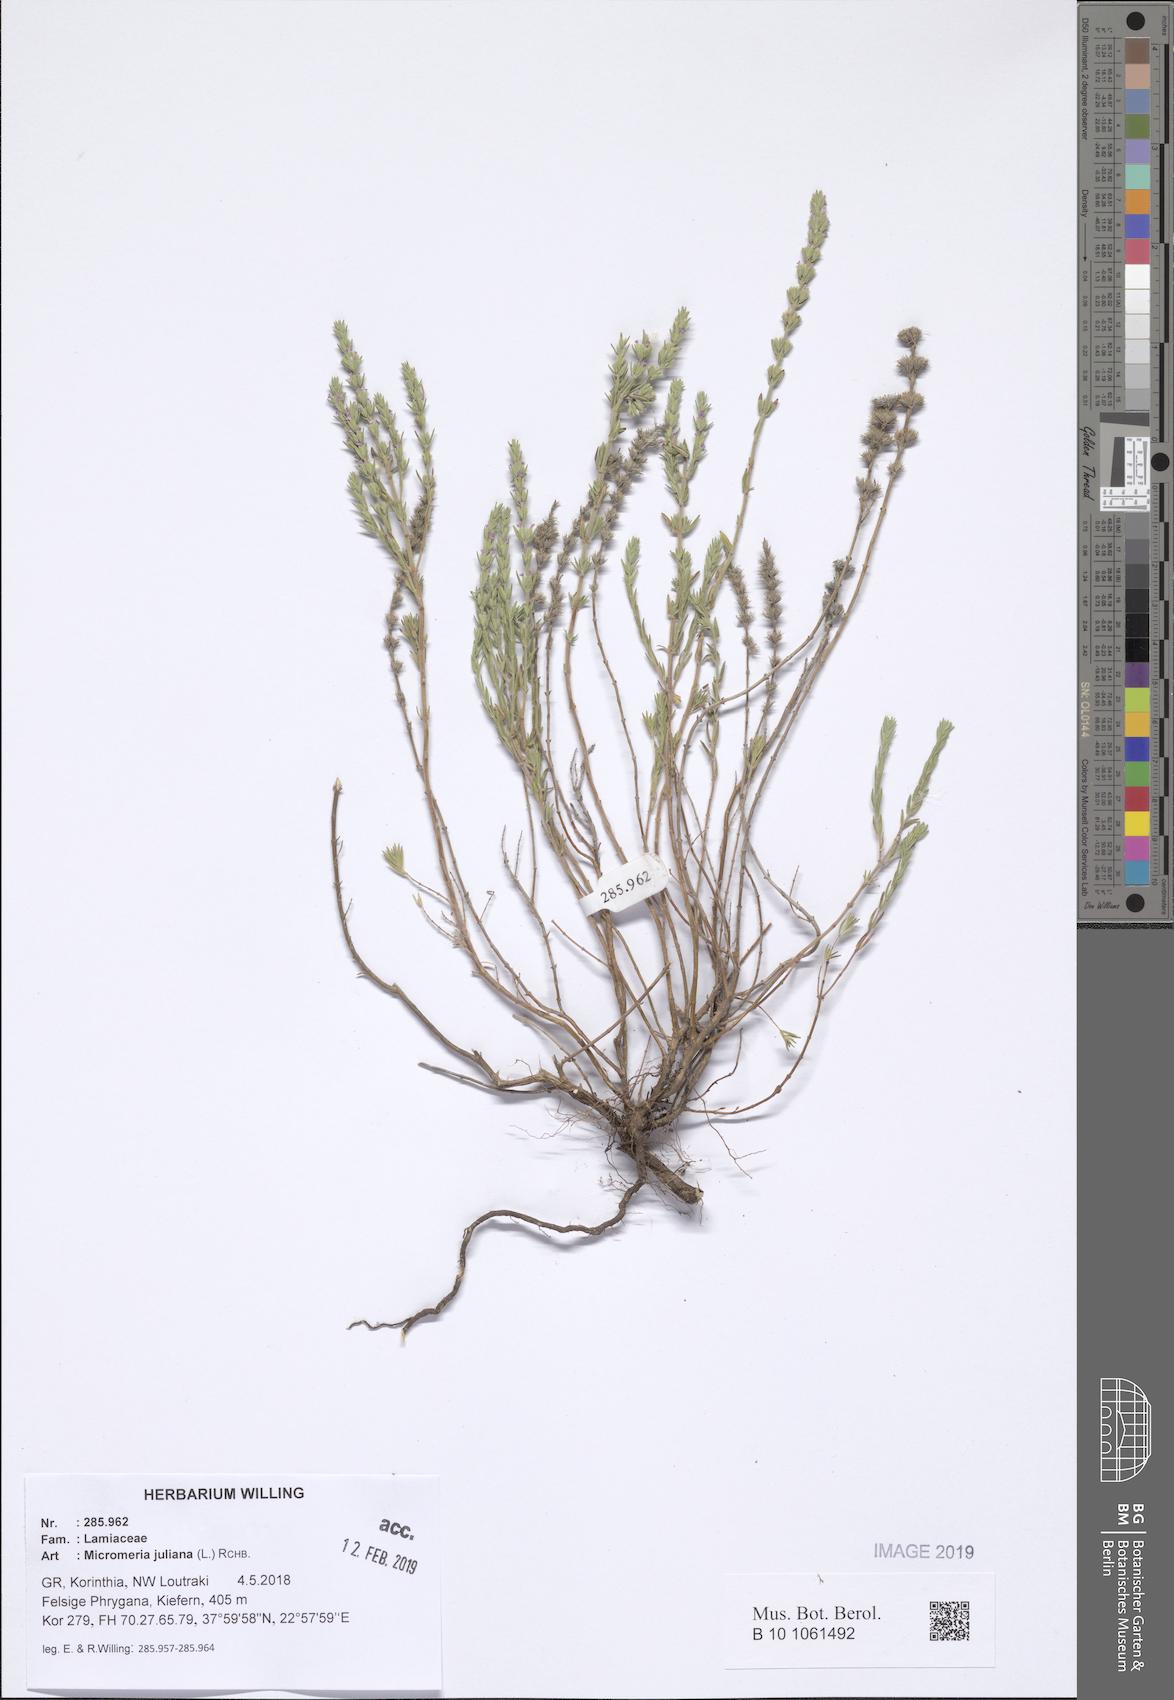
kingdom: Plantae
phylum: Tracheophyta
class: Magnoliopsida
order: Lamiales
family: Lamiaceae
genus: Micromeria
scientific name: Micromeria juliana
